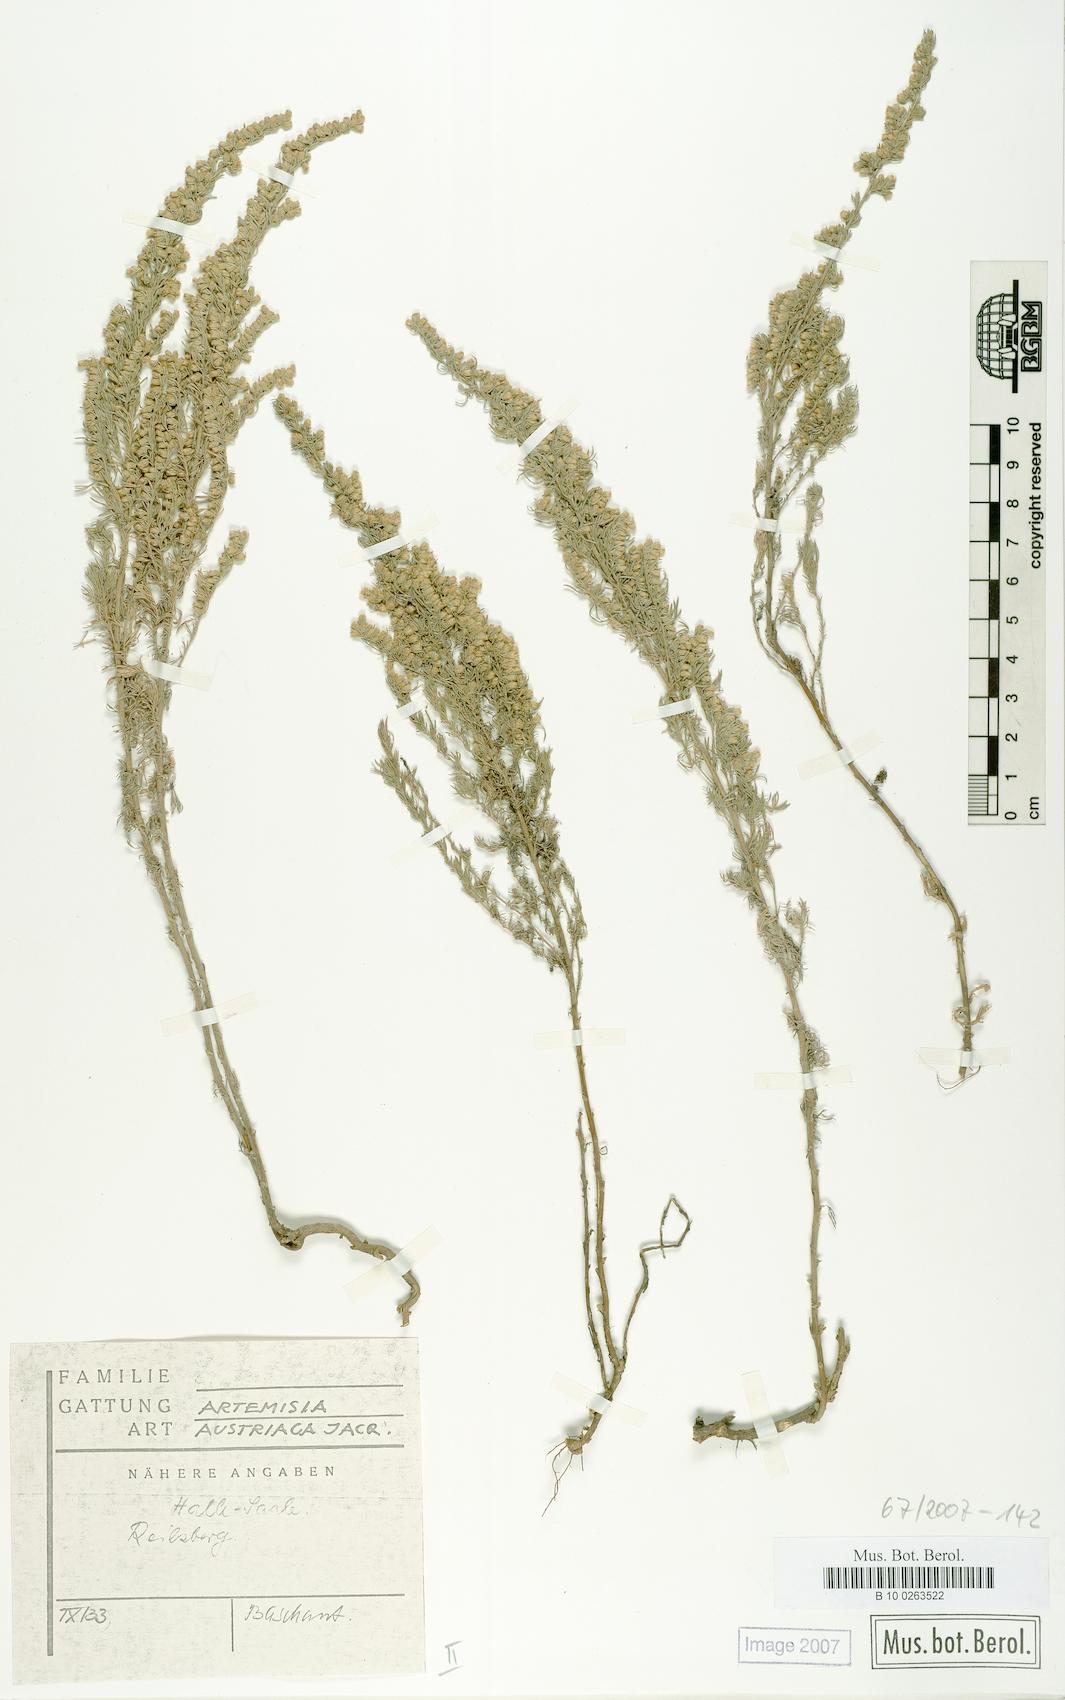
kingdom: Plantae
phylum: Tracheophyta
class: Magnoliopsida
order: Asterales
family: Asteraceae
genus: Artemisia
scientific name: Artemisia austriaca
